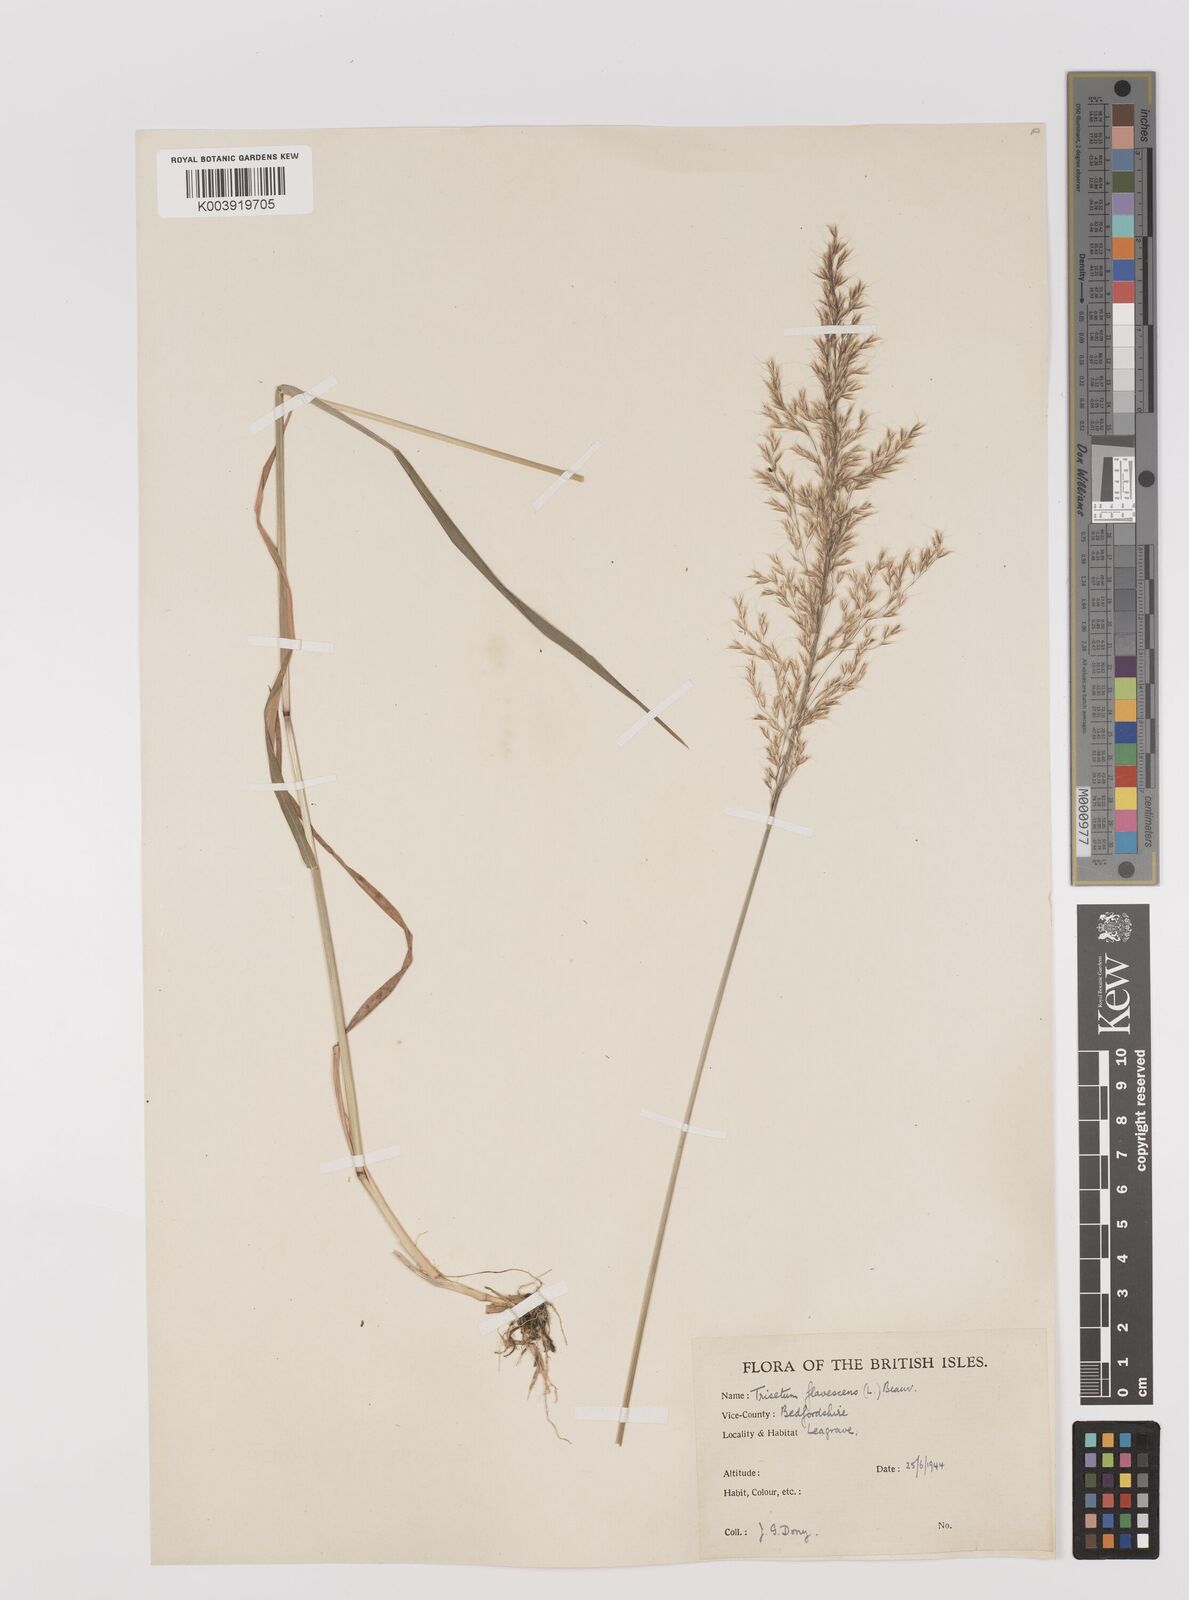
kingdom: Plantae
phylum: Tracheophyta
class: Liliopsida
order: Poales
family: Poaceae
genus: Trisetum
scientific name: Trisetum flavescens
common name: Yellow oat-grass
